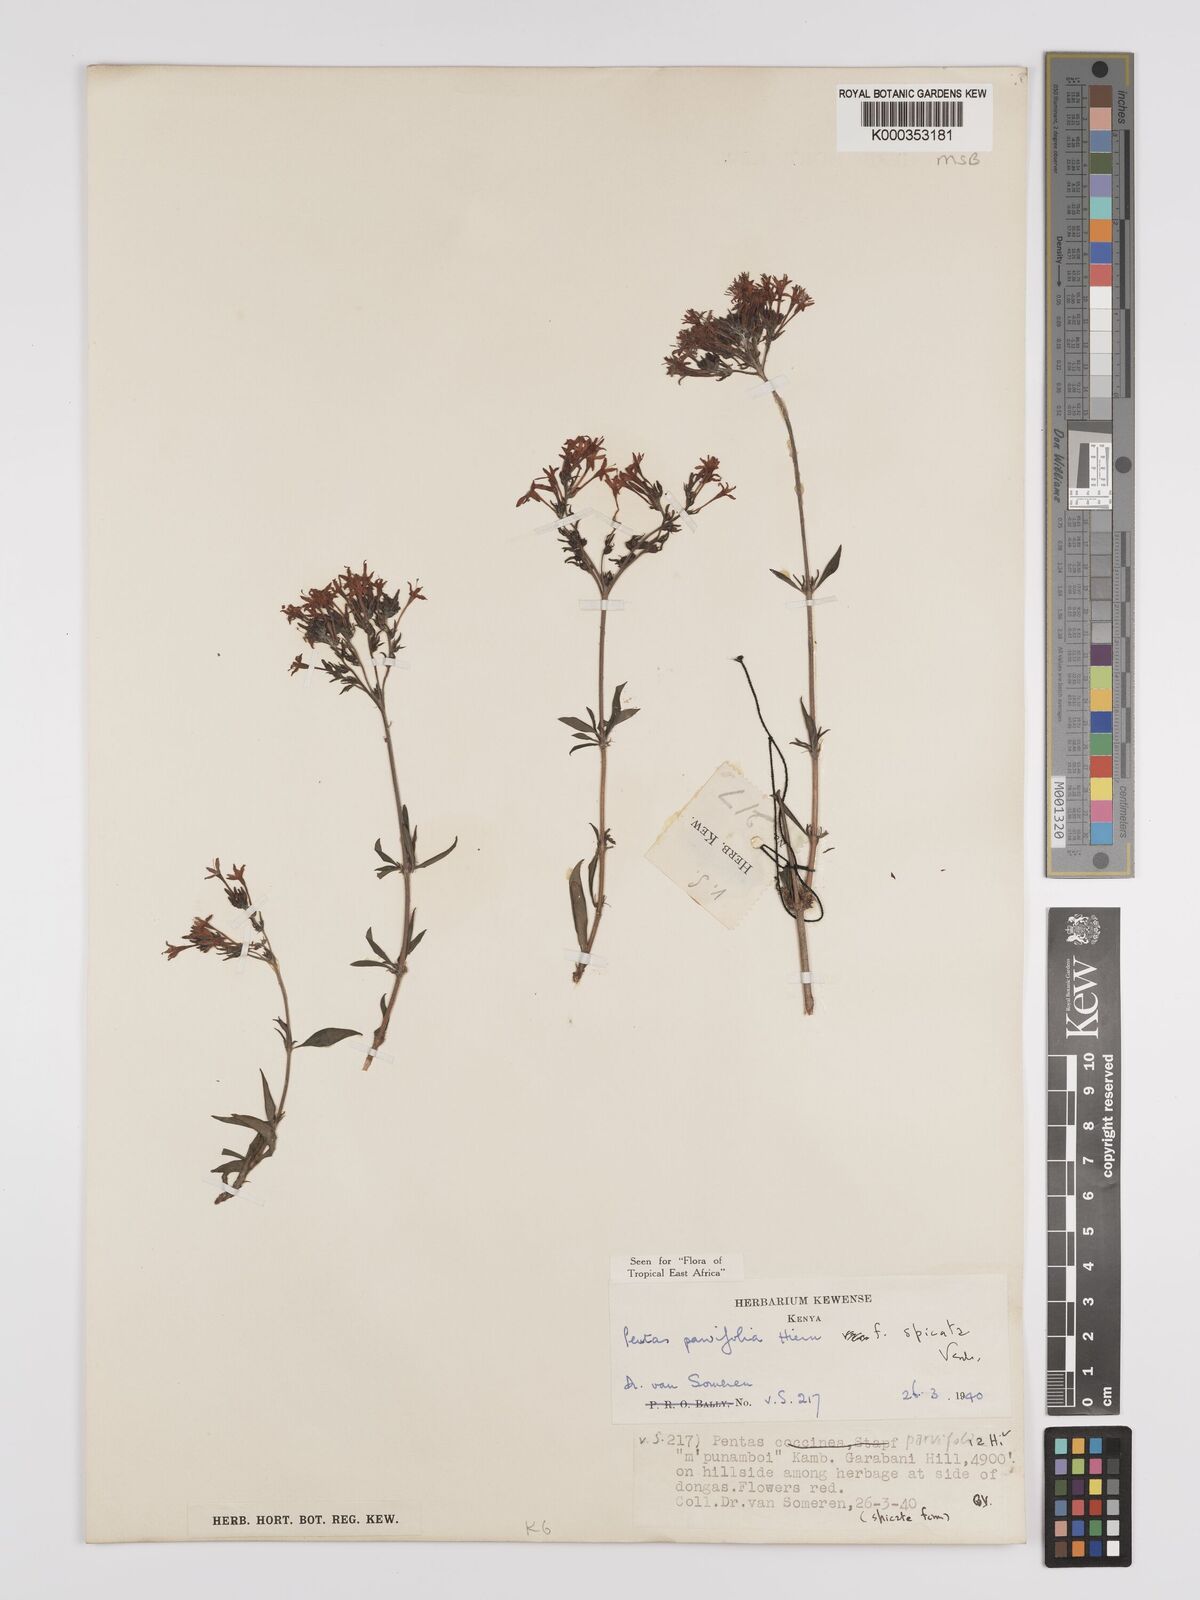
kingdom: Plantae
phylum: Tracheophyta
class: Magnoliopsida
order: Gentianales
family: Rubiaceae
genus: Rhodopentas
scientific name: Rhodopentas parvifolia
